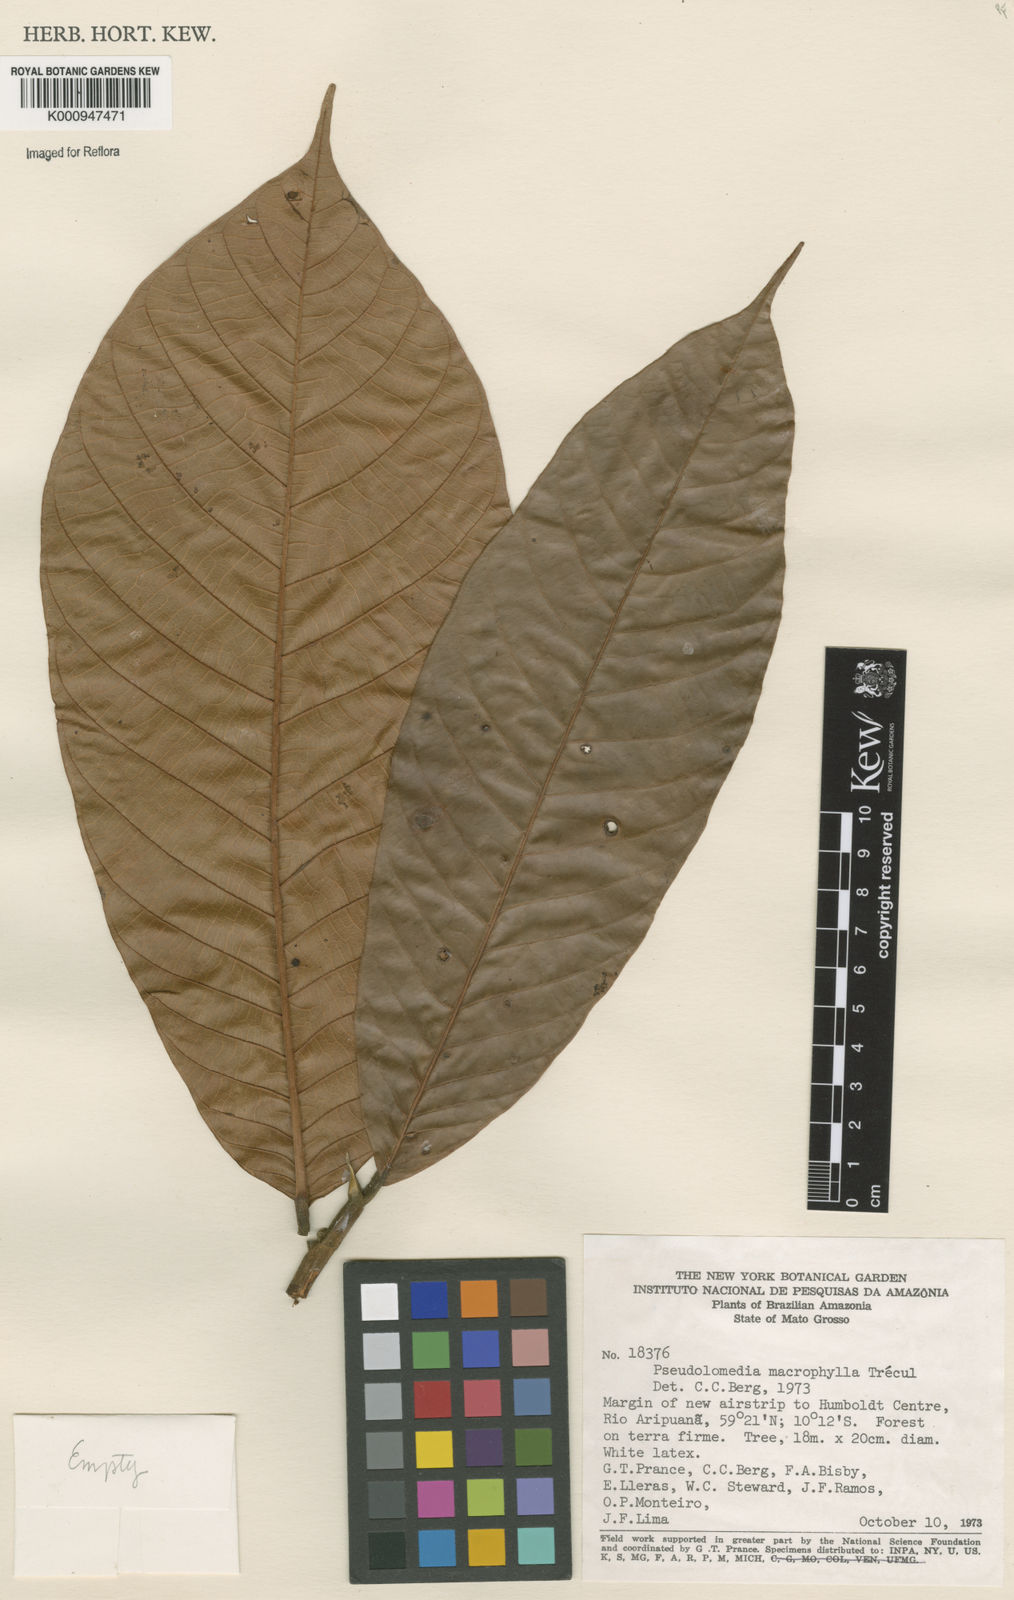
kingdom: Plantae
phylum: Tracheophyta
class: Magnoliopsida
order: Rosales
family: Moraceae
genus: Pseudolmedia
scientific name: Pseudolmedia
